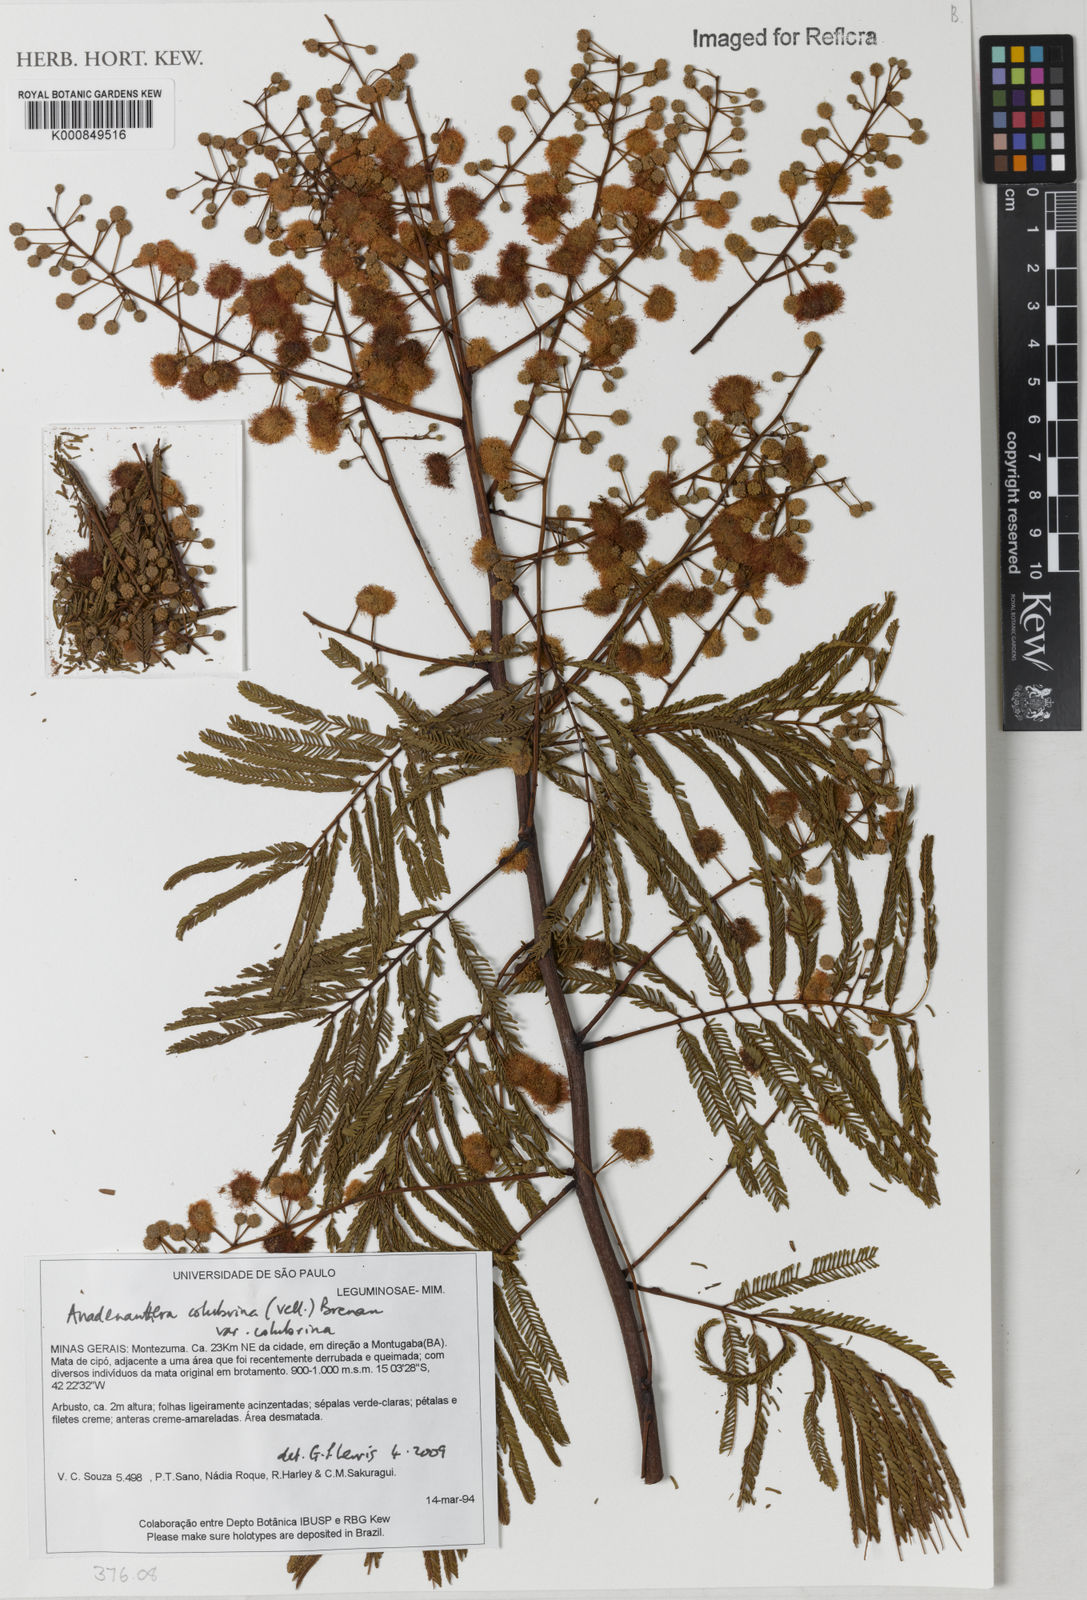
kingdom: Plantae
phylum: Tracheophyta
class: Magnoliopsida
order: Fabales
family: Fabaceae
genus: Anadenanthera
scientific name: Anadenanthera colubrina
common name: Curupay
